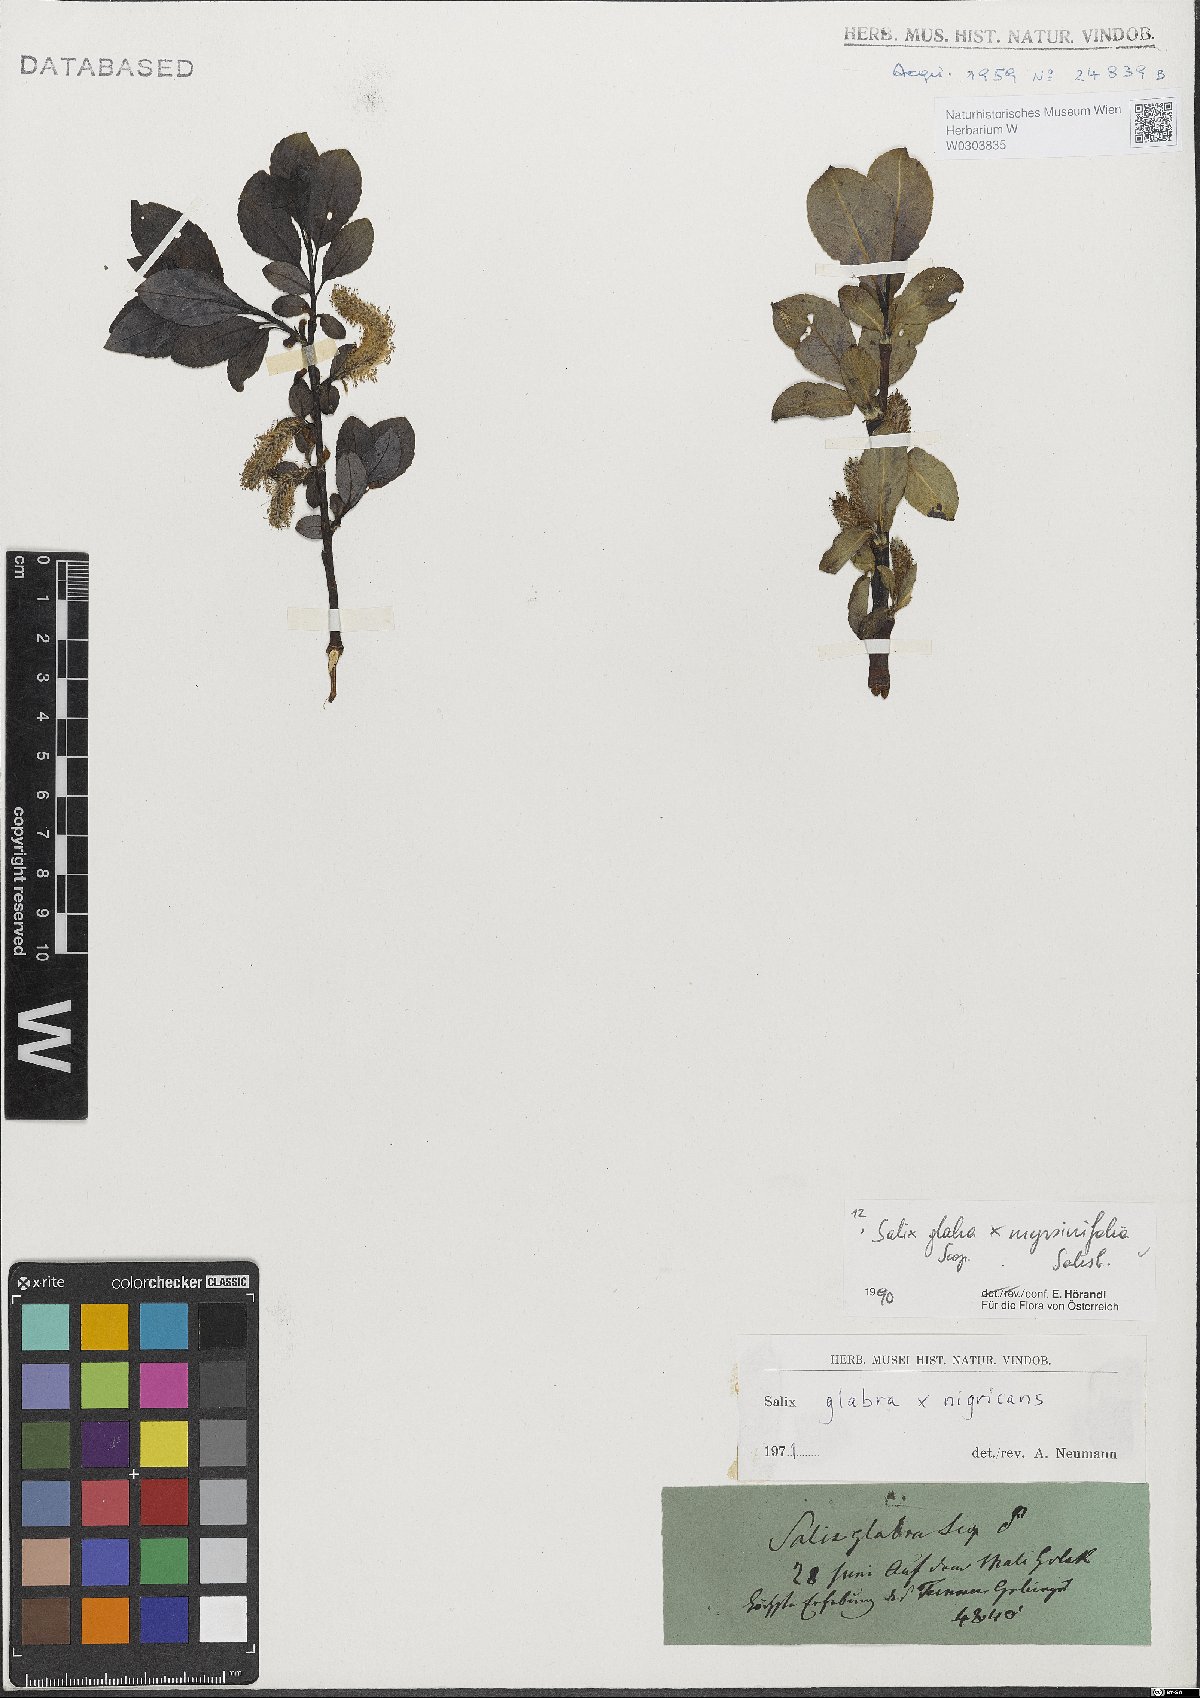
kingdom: Plantae
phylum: Tracheophyta
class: Magnoliopsida
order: Malpighiales
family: Salicaceae
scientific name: Salicaceae
